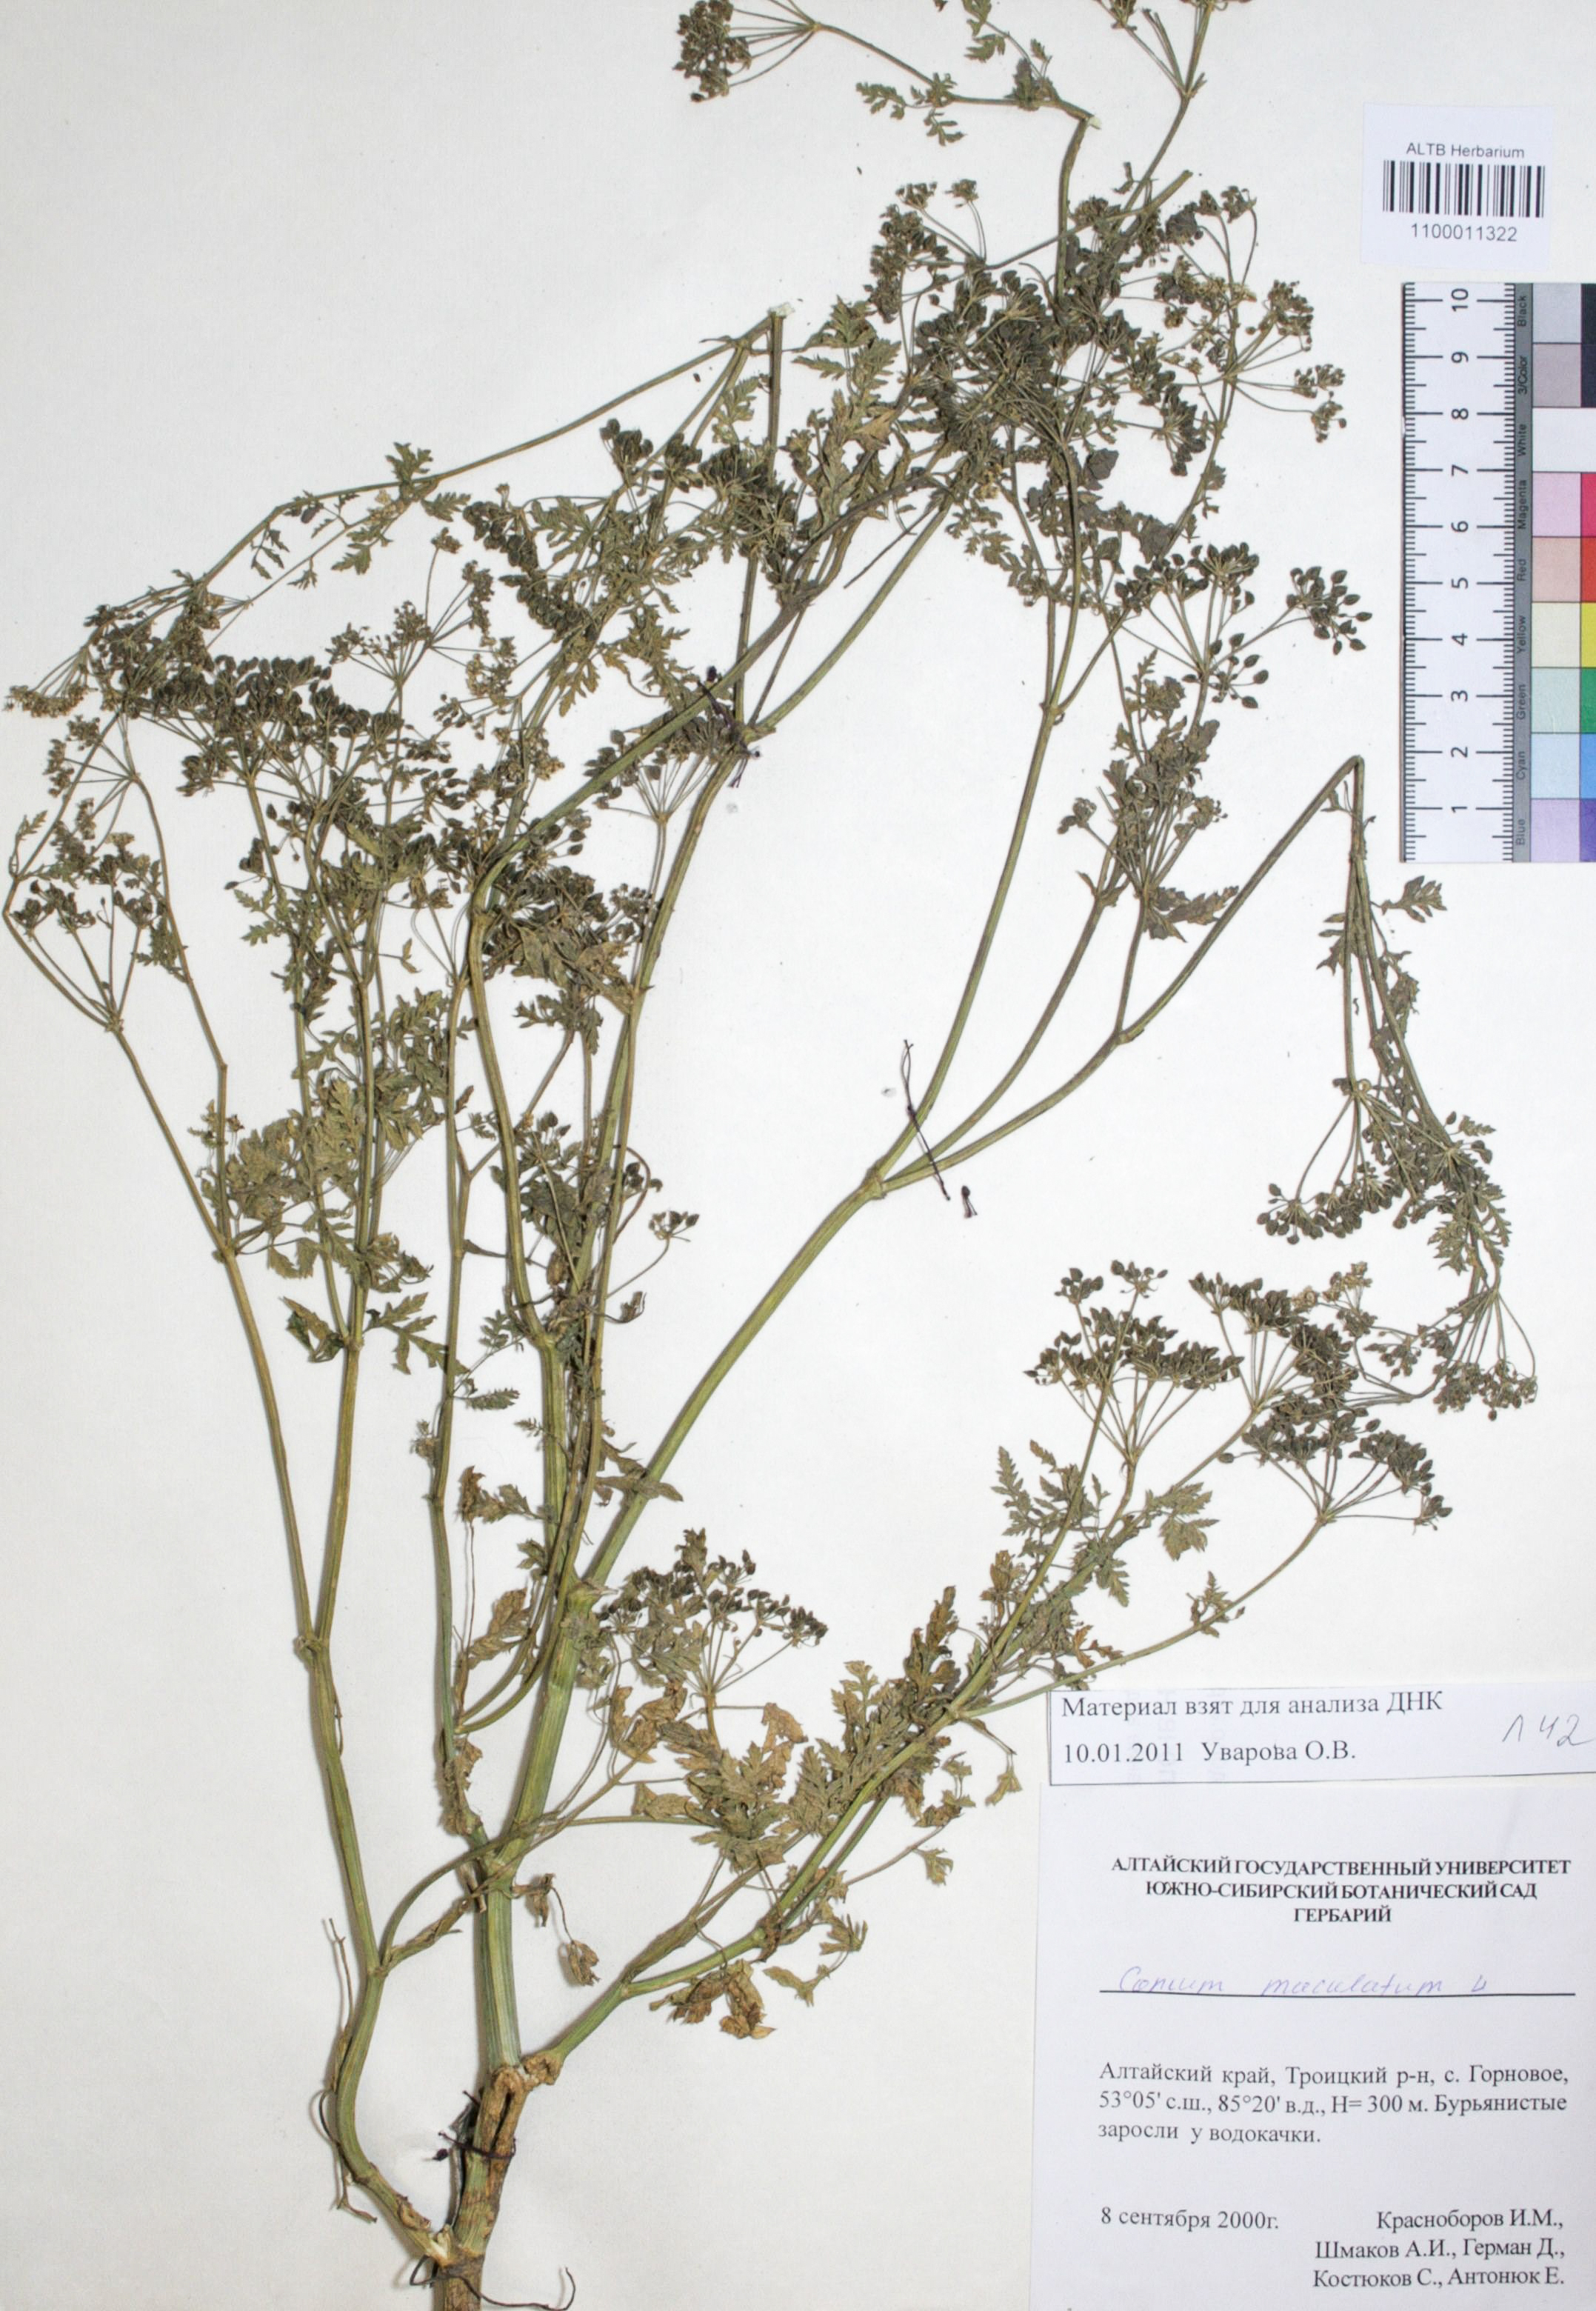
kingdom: Plantae
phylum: Tracheophyta
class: Magnoliopsida
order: Apiales
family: Apiaceae
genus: Conium
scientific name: Conium maculatum
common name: Hemlock
